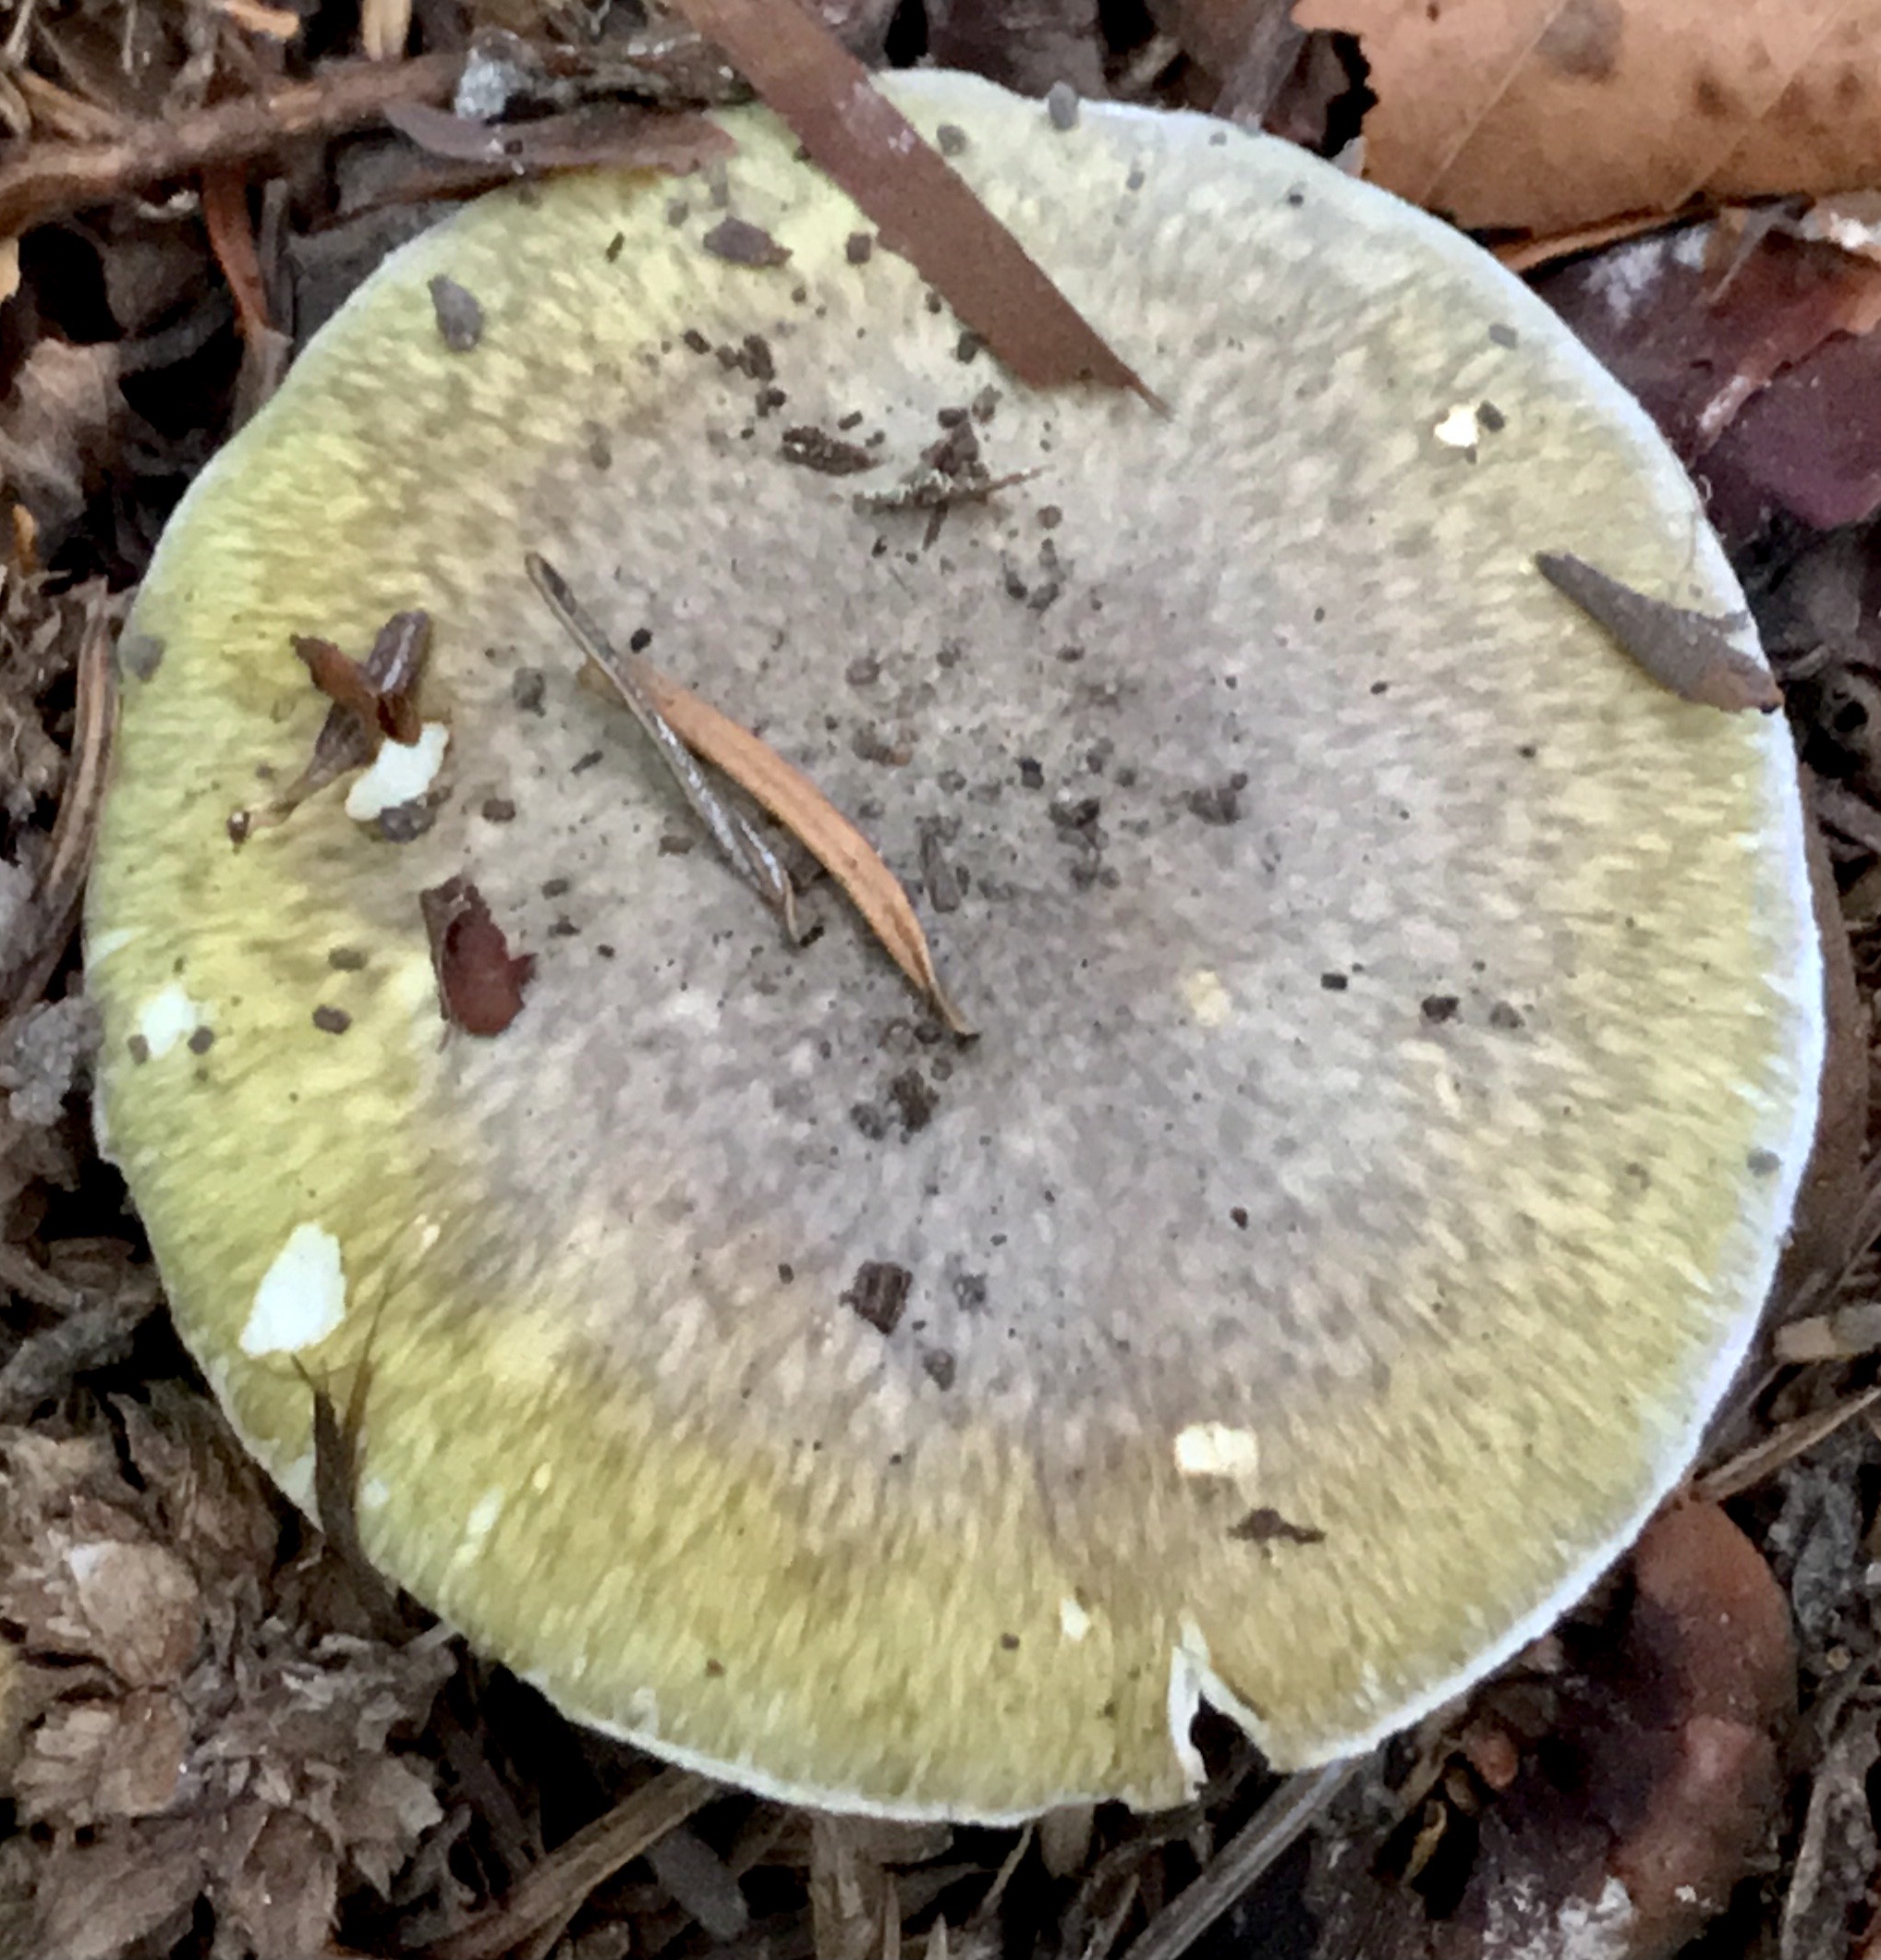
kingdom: Fungi
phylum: Basidiomycota
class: Agaricomycetes
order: Agaricales
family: Amanitaceae
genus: Amanita
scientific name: Amanita phalloides
